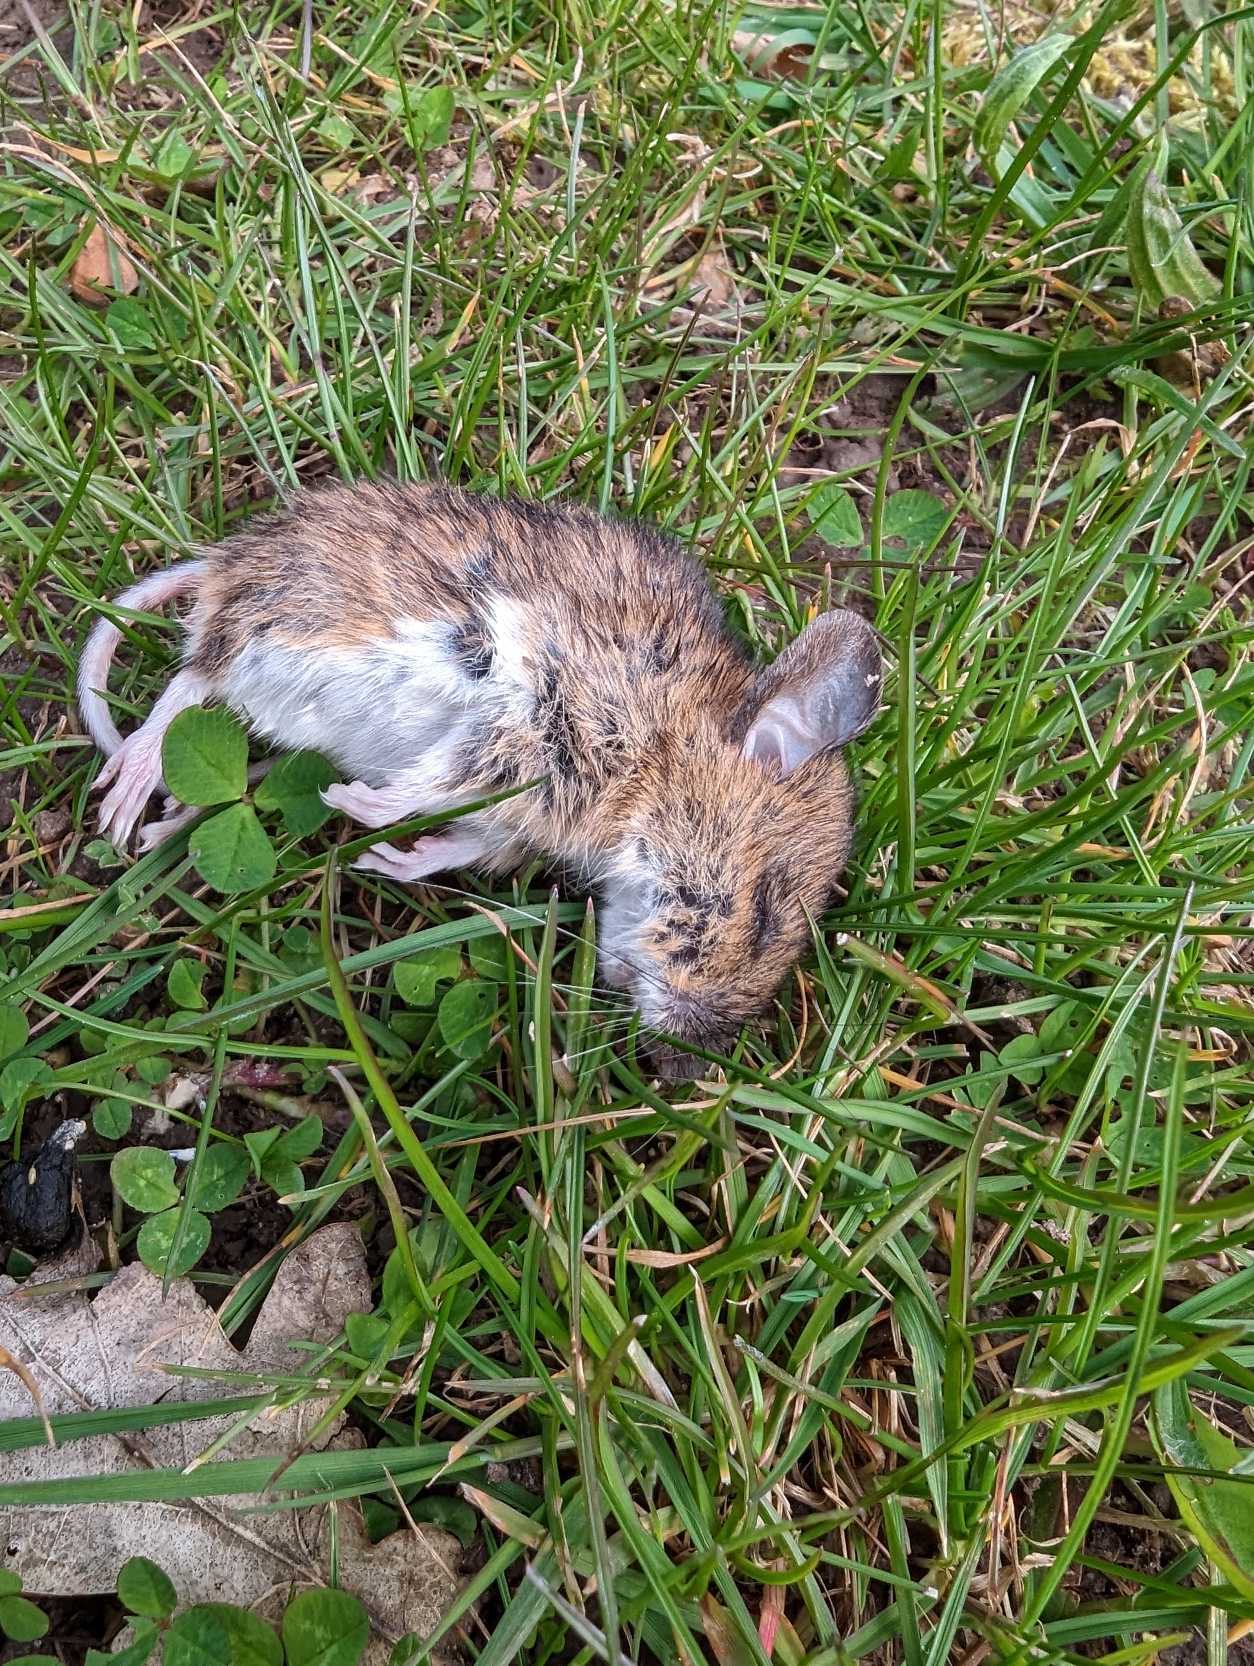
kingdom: Animalia
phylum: Chordata
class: Mammalia
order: Rodentia
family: Muridae
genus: Apodemus
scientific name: Apodemus flavicollis
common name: Halsbåndmus
